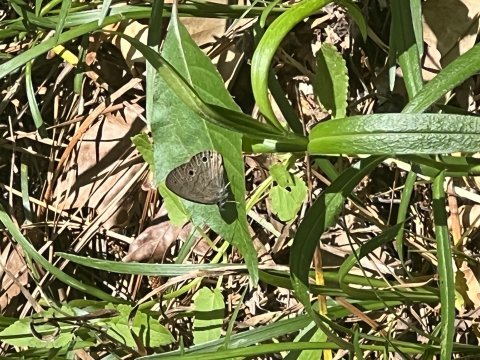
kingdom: Animalia
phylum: Arthropoda
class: Insecta
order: Lepidoptera
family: Nymphalidae
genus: Hermeuptychia
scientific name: Hermeuptychia hermes
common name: Carolina Satyr
